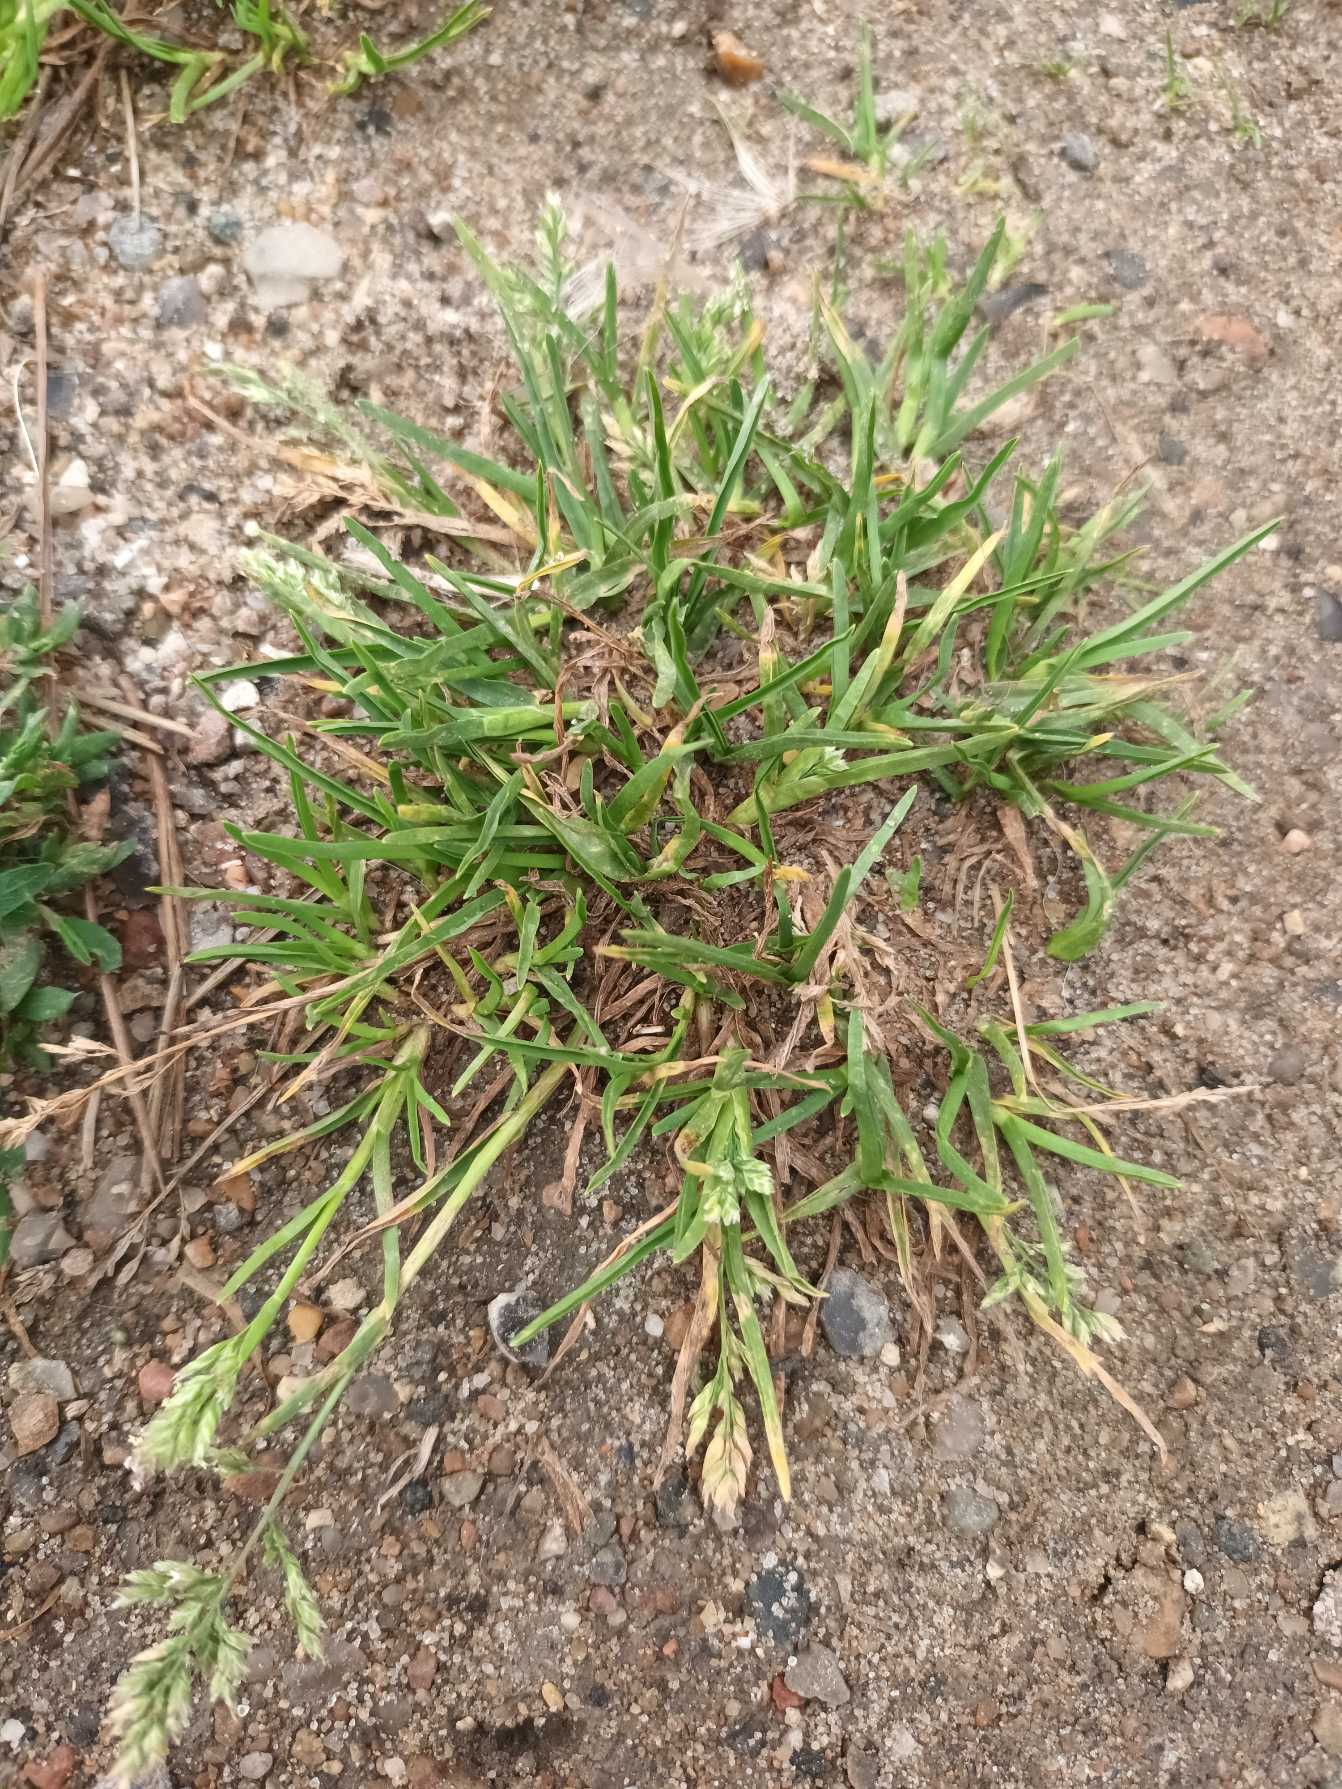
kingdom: Plantae
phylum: Tracheophyta
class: Liliopsida
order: Poales
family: Poaceae
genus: Poa
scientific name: Poa annua
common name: Enårig rapgræs
